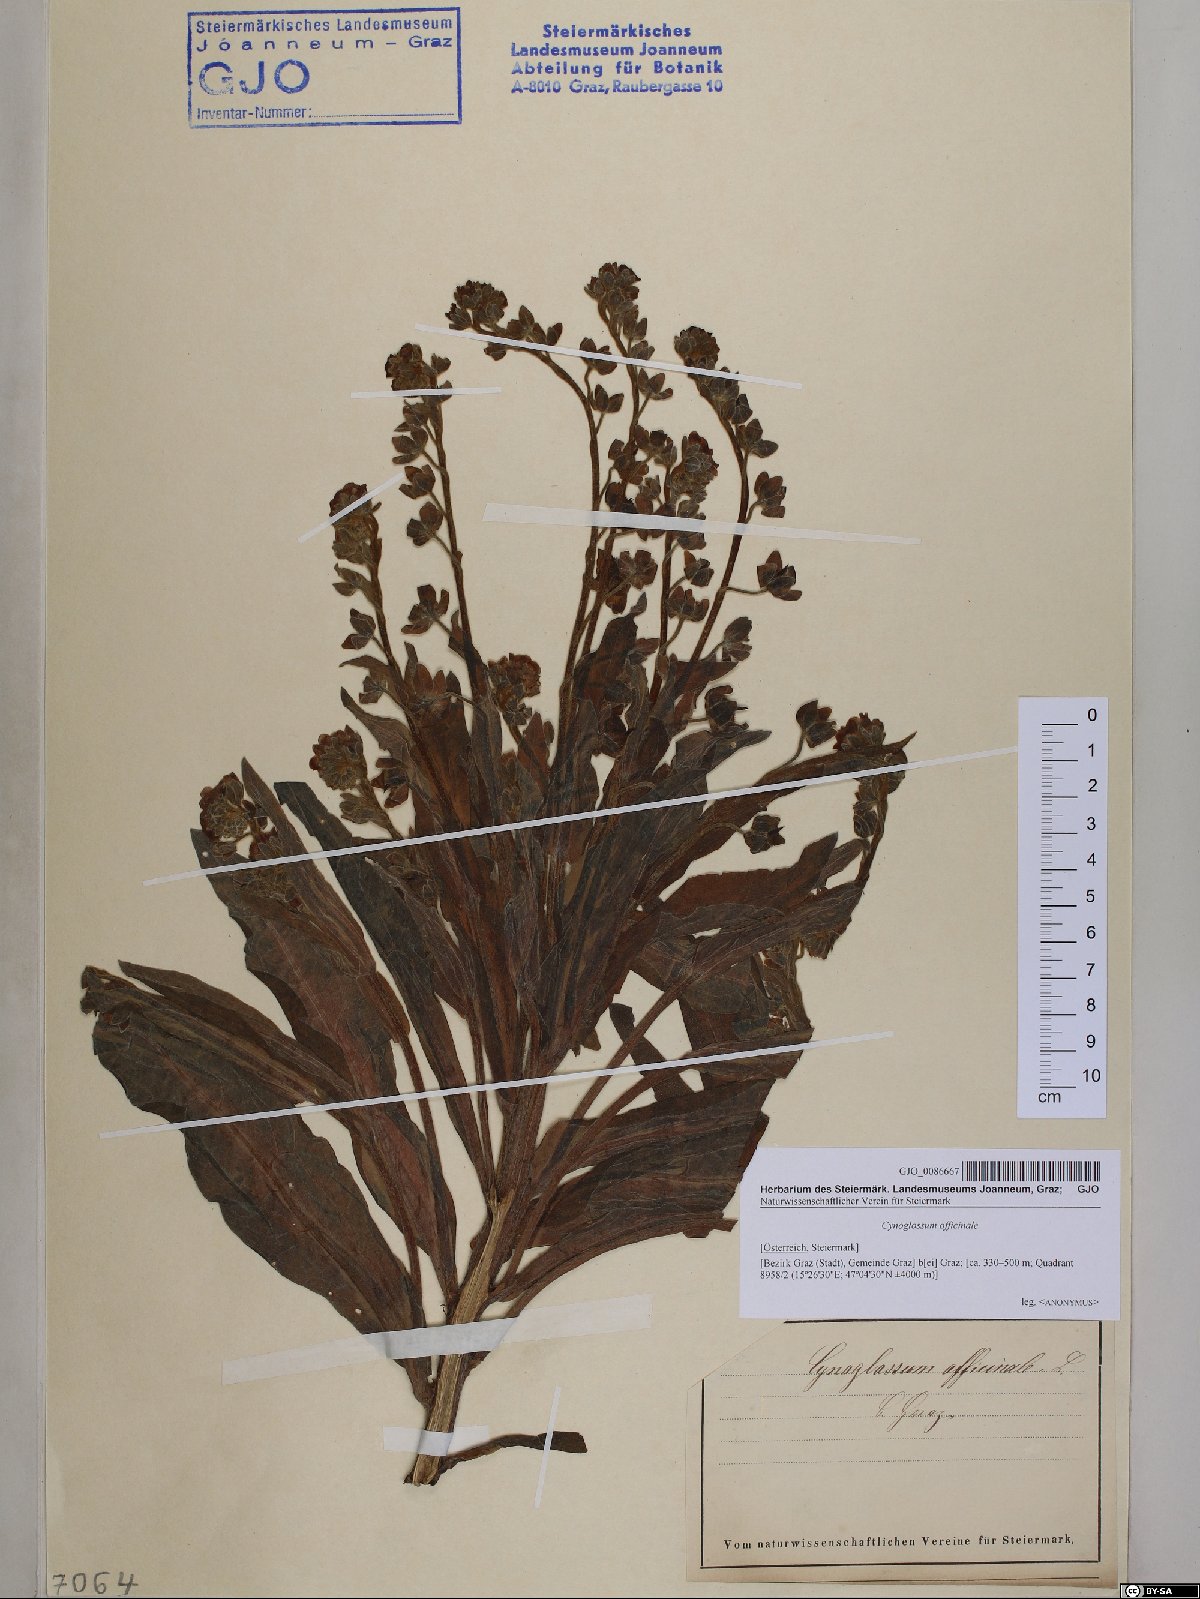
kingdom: Plantae
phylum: Tracheophyta
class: Magnoliopsida
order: Boraginales
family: Boraginaceae
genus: Cynoglossum
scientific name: Cynoglossum officinale
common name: Hound's-tongue
